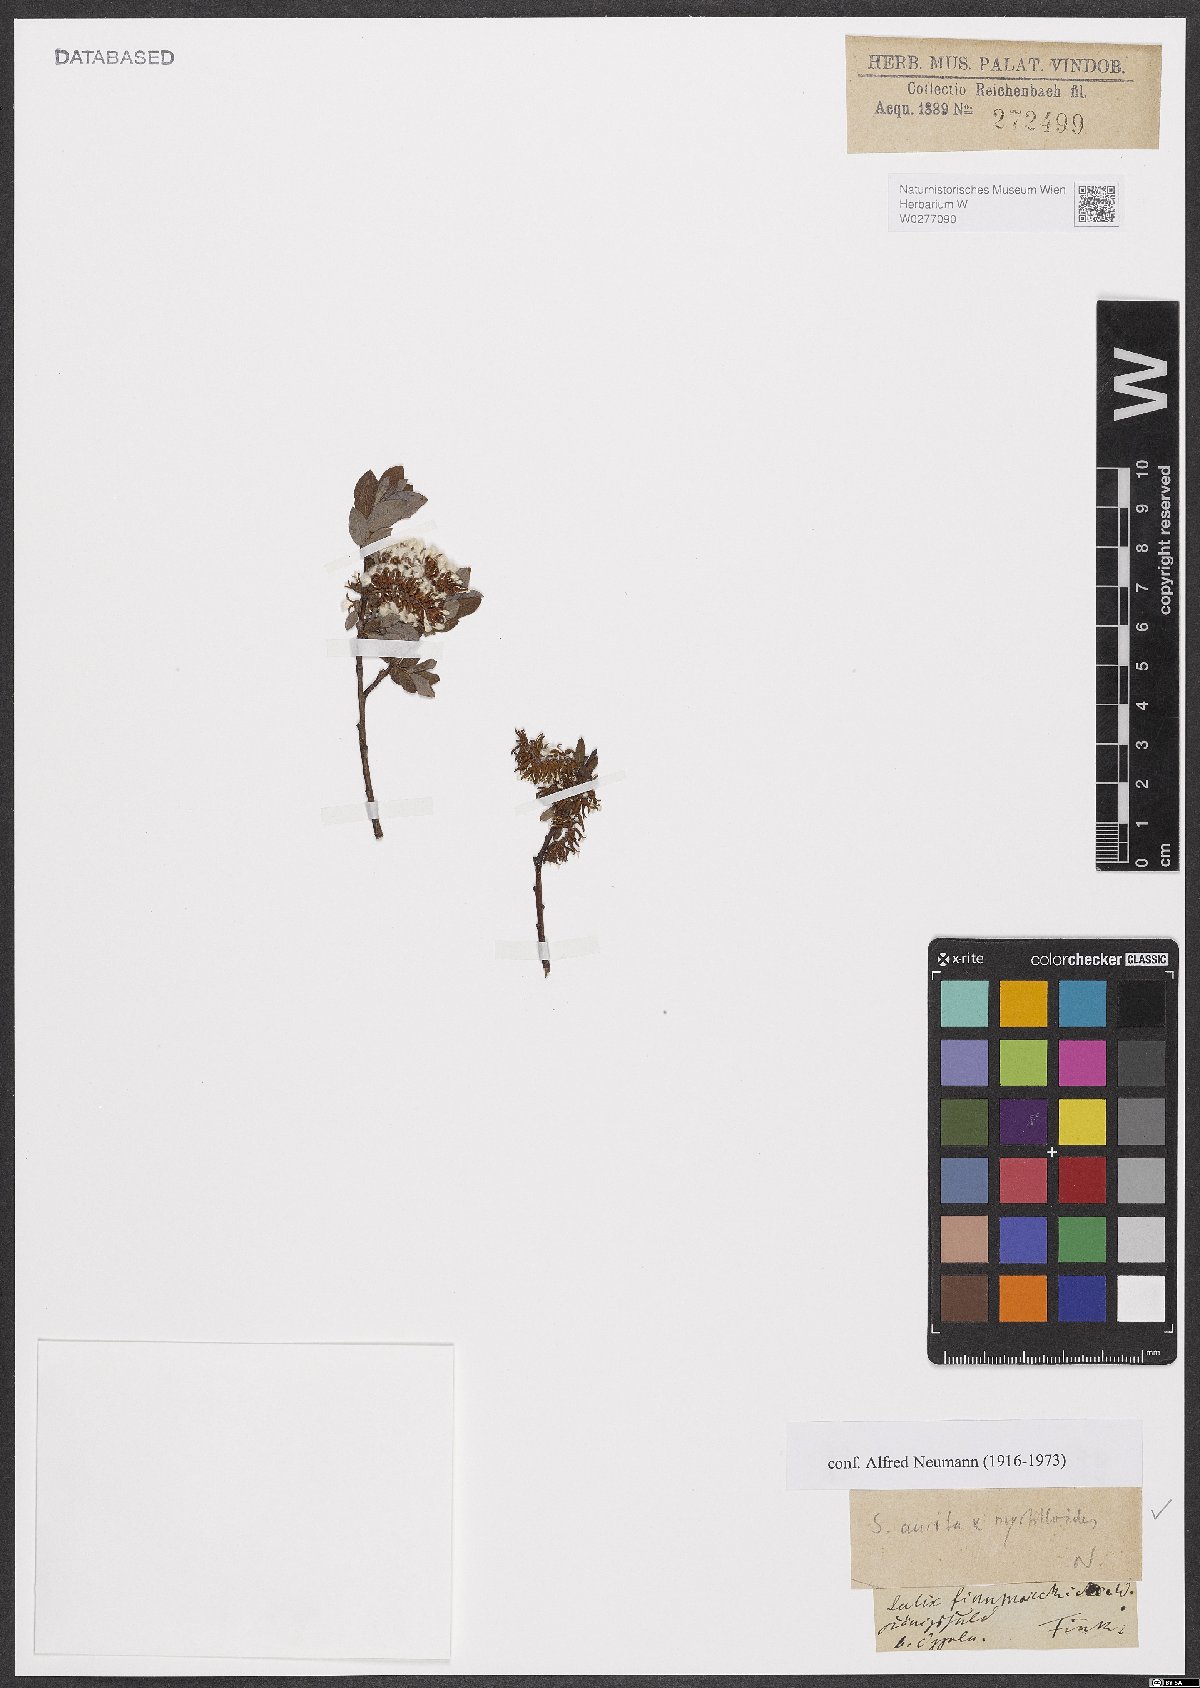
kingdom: Plantae
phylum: Tracheophyta
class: Magnoliopsida
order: Malpighiales
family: Salicaceae
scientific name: Salicaceae
